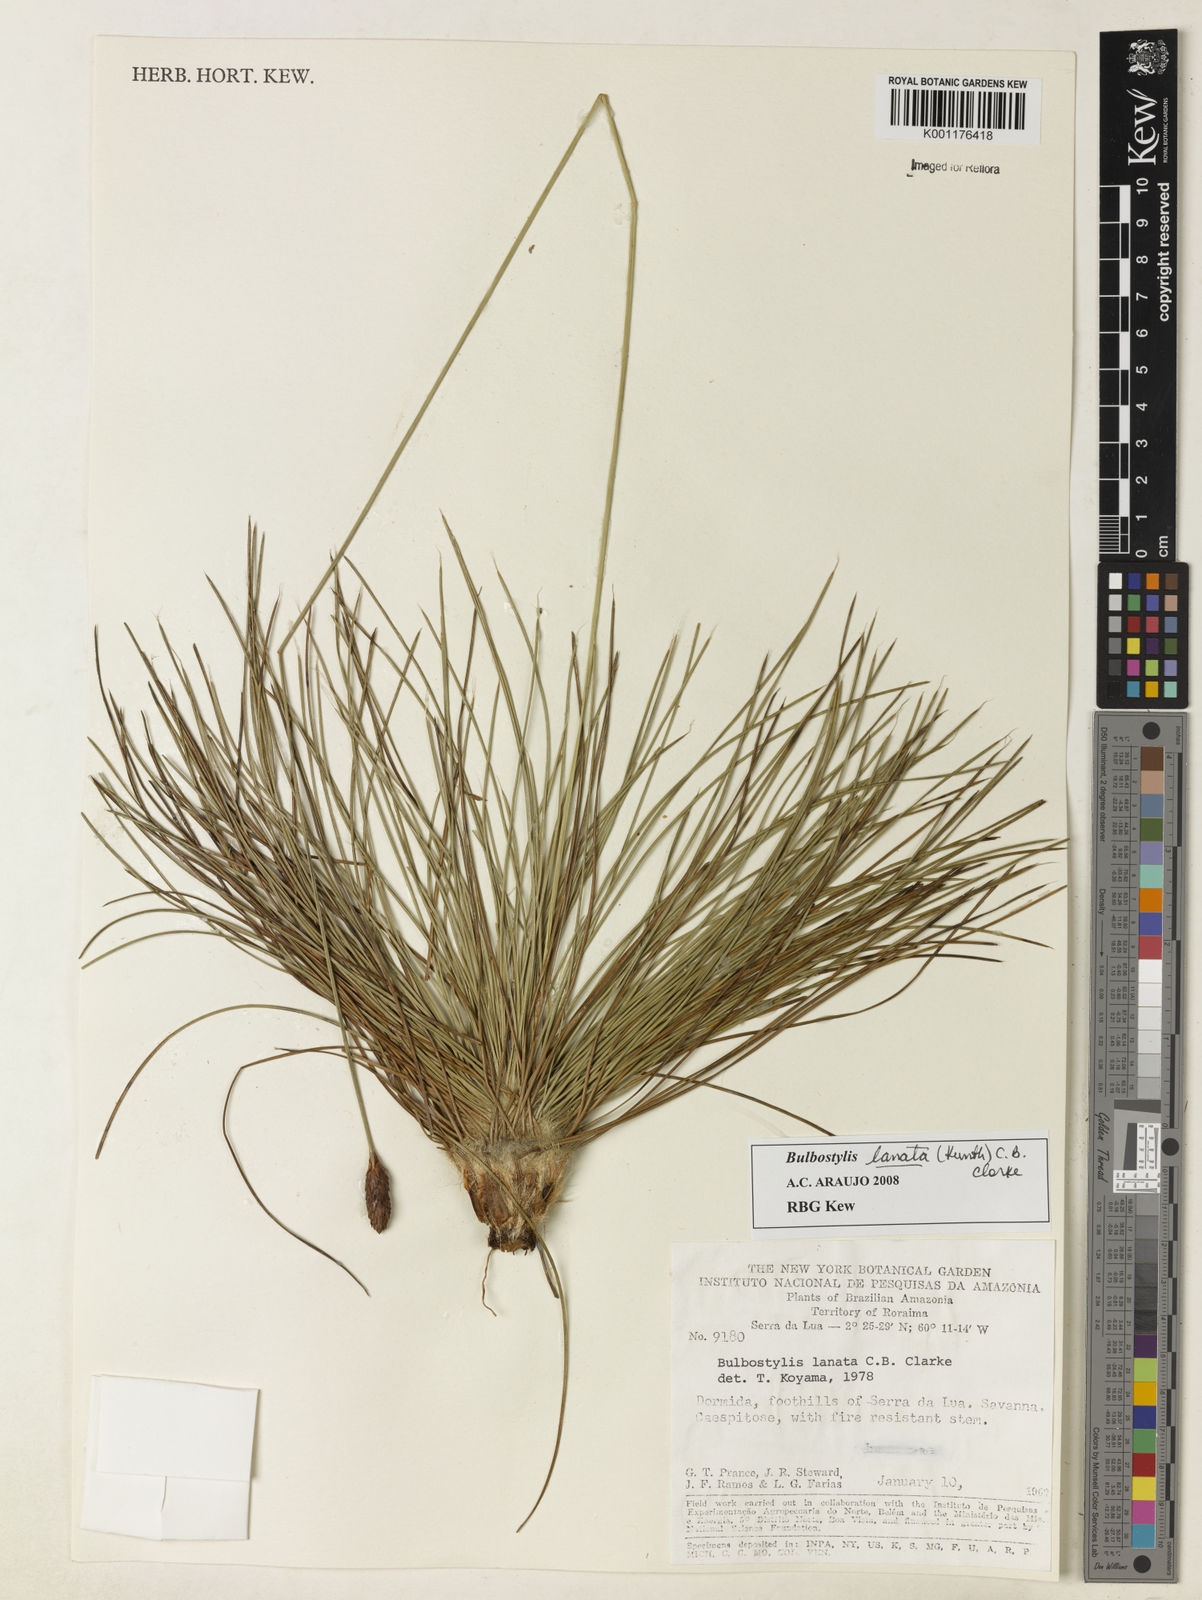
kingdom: Plantae
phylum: Tracheophyta
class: Liliopsida
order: Poales
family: Cyperaceae
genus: Bulbostylis
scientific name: Bulbostylis lanata
